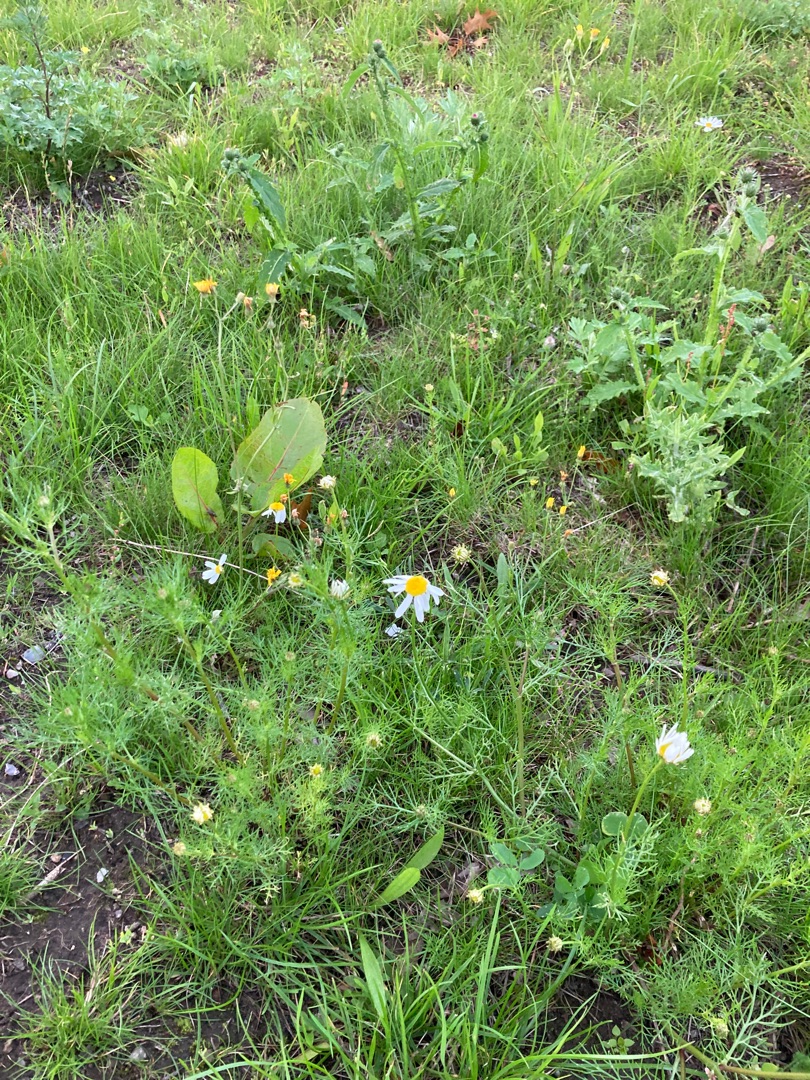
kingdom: Plantae
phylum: Tracheophyta
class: Magnoliopsida
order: Asterales
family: Asteraceae
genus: Tripleurospermum
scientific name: Tripleurospermum inodorum
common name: Lugtløs kamille
